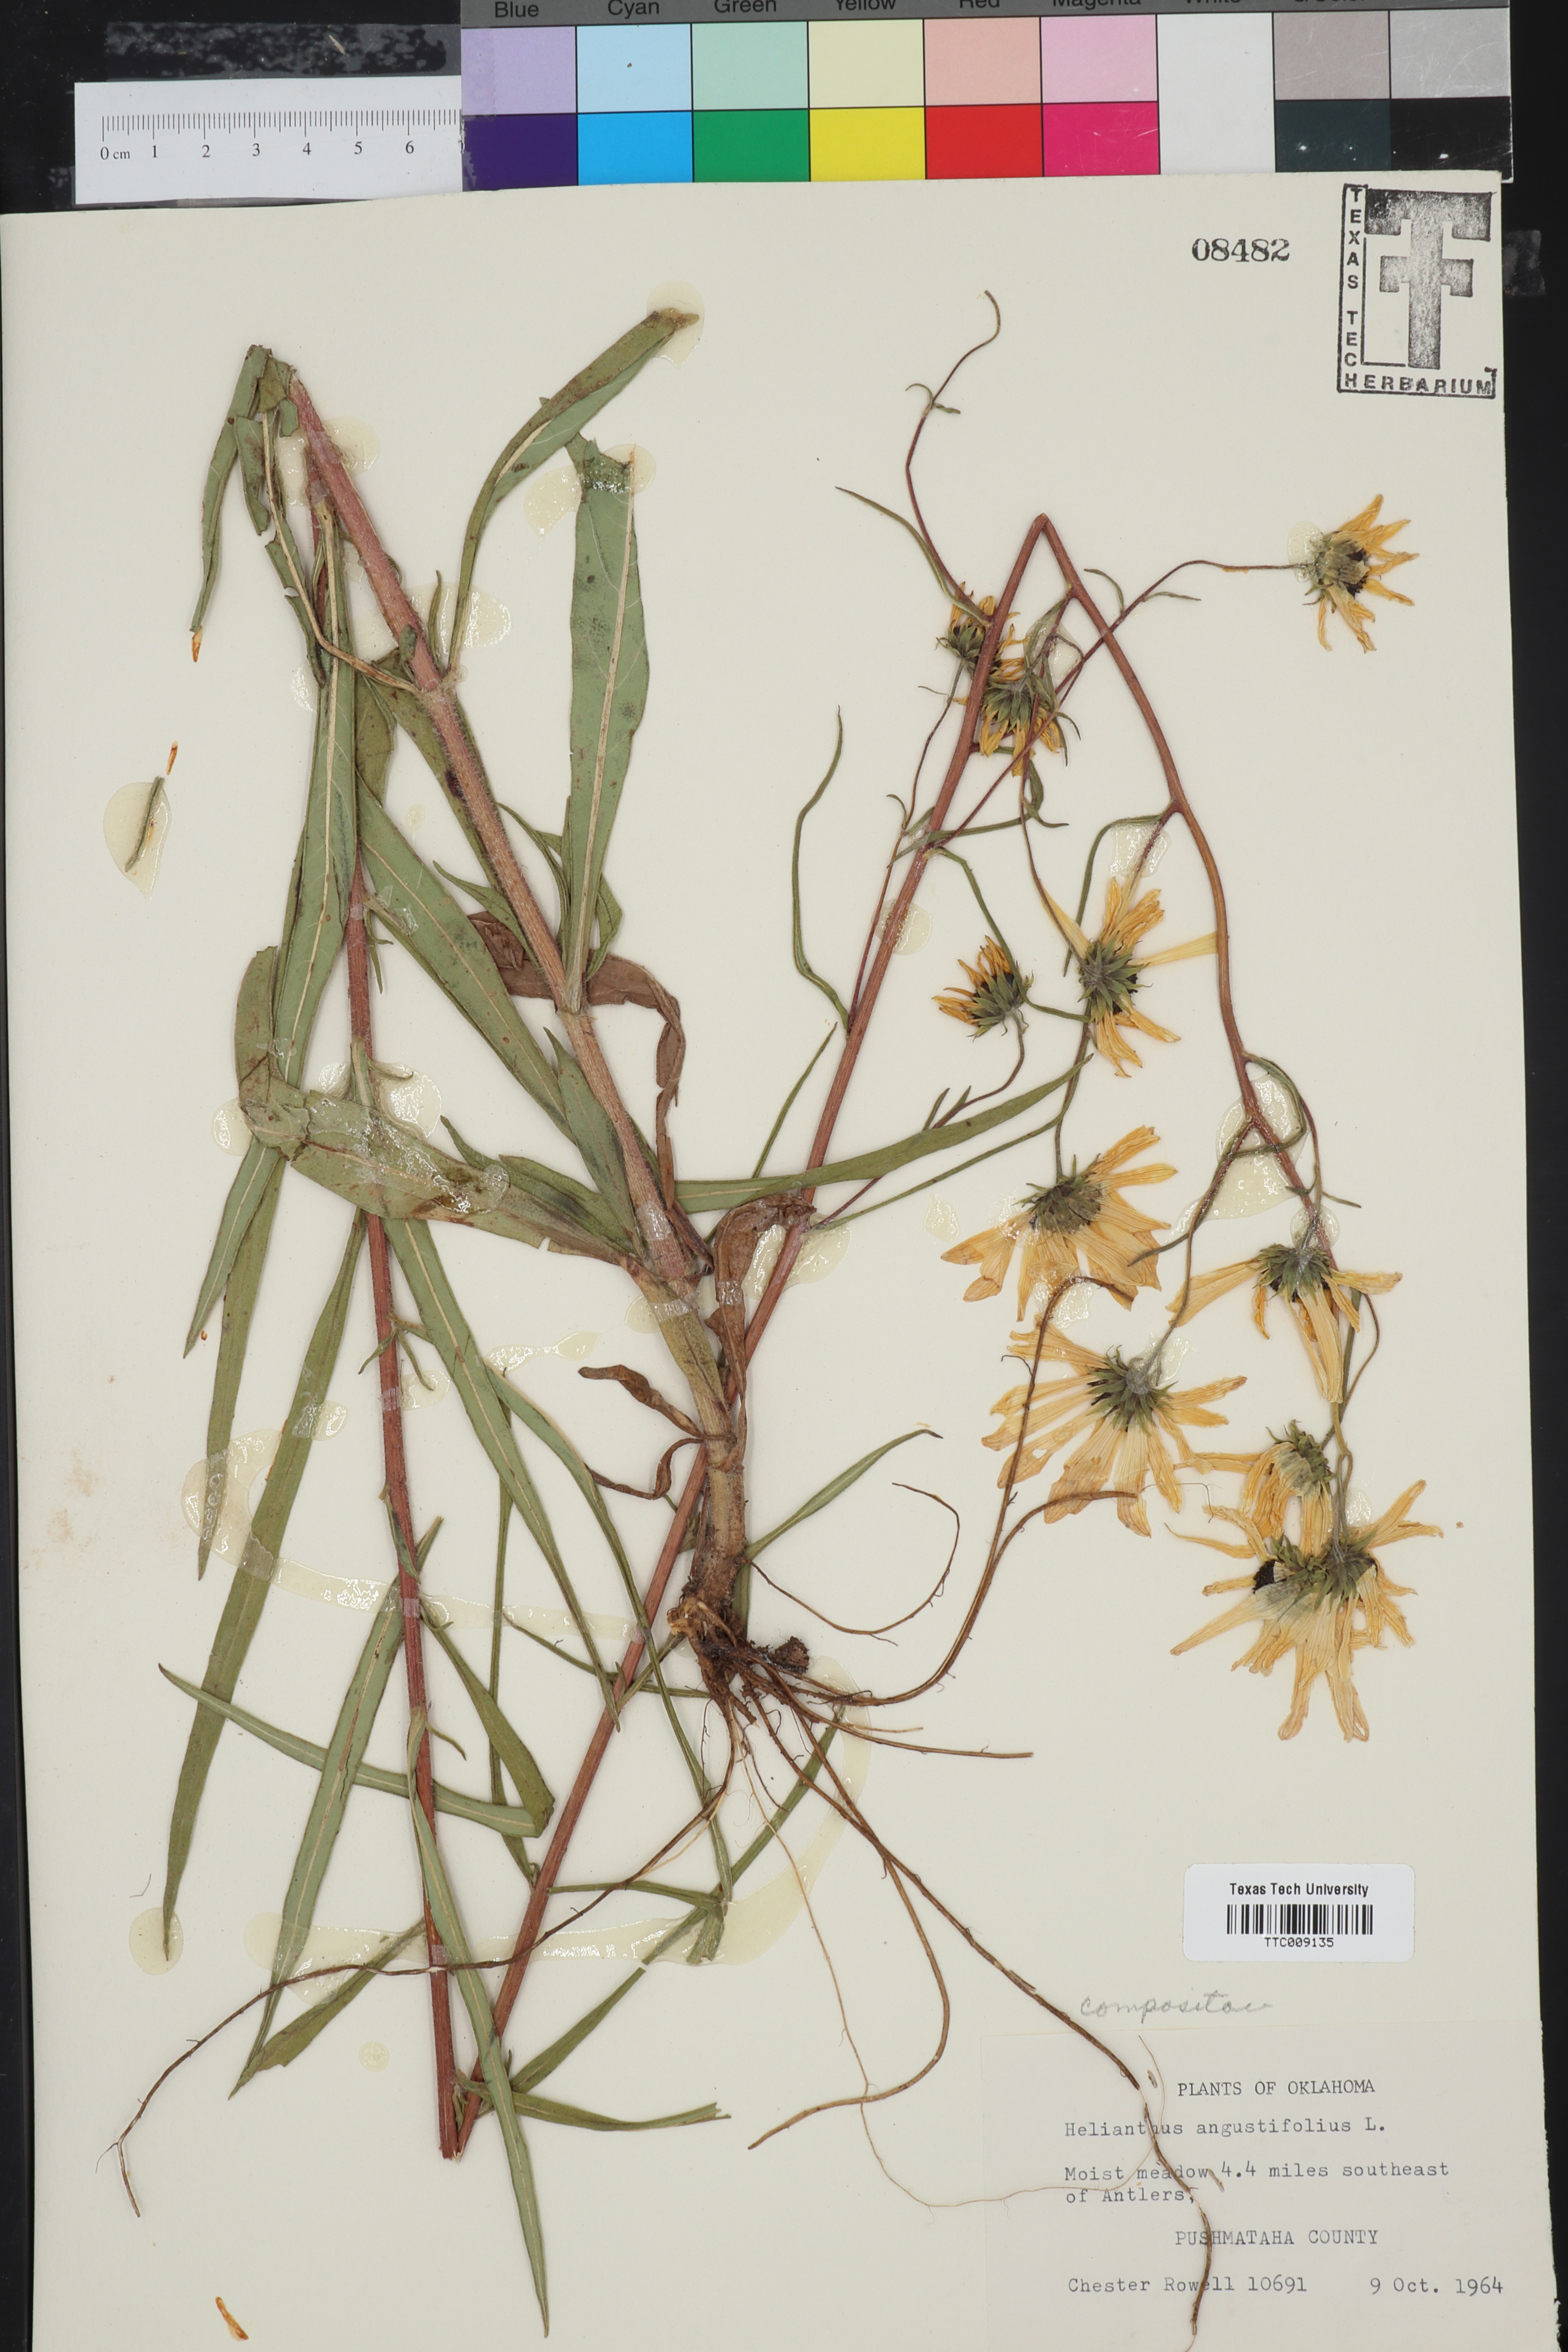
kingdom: Plantae
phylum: Tracheophyta
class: Magnoliopsida
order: Asterales
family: Asteraceae
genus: Helianthus
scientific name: Helianthus angustifolius
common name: Swamp sunflower
